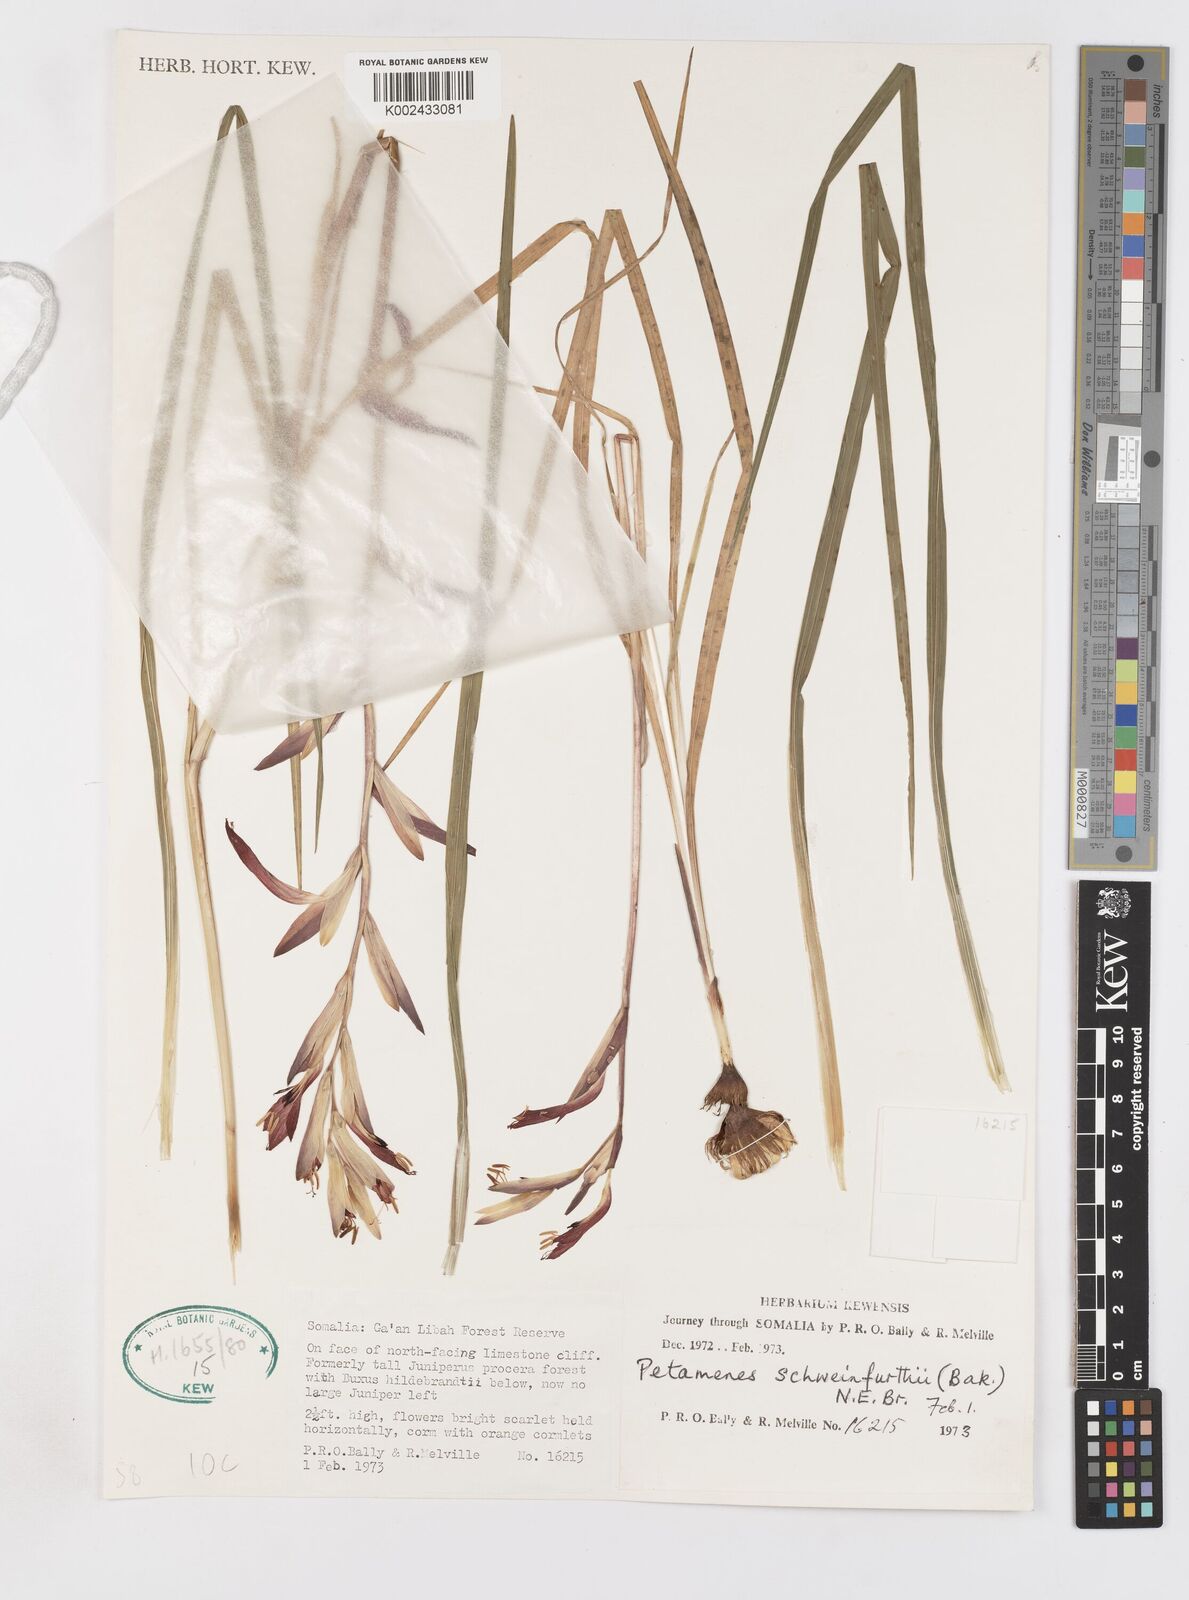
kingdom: Plantae
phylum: Tracheophyta
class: Liliopsida
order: Asparagales
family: Iridaceae
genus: Gladiolus
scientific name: Gladiolus schweinfurthii
